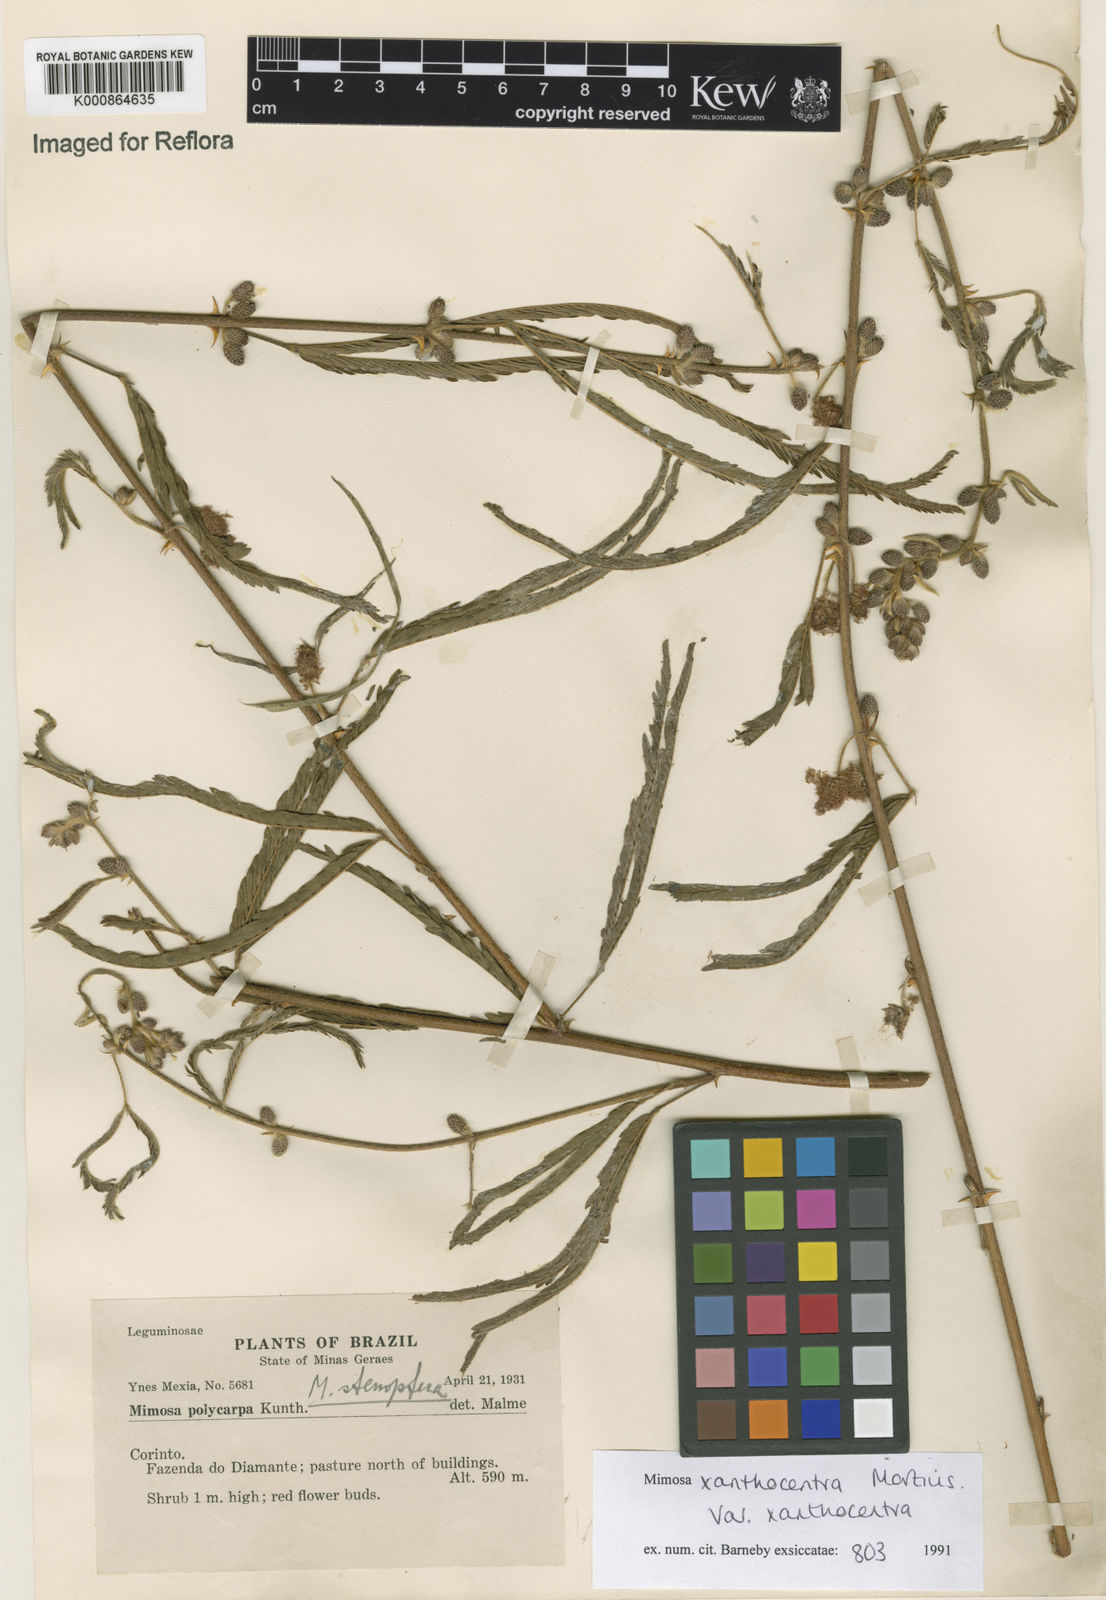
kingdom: Plantae
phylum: Tracheophyta
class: Magnoliopsida
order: Fabales
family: Fabaceae
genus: Mimosa
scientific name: Mimosa xanthocentra
